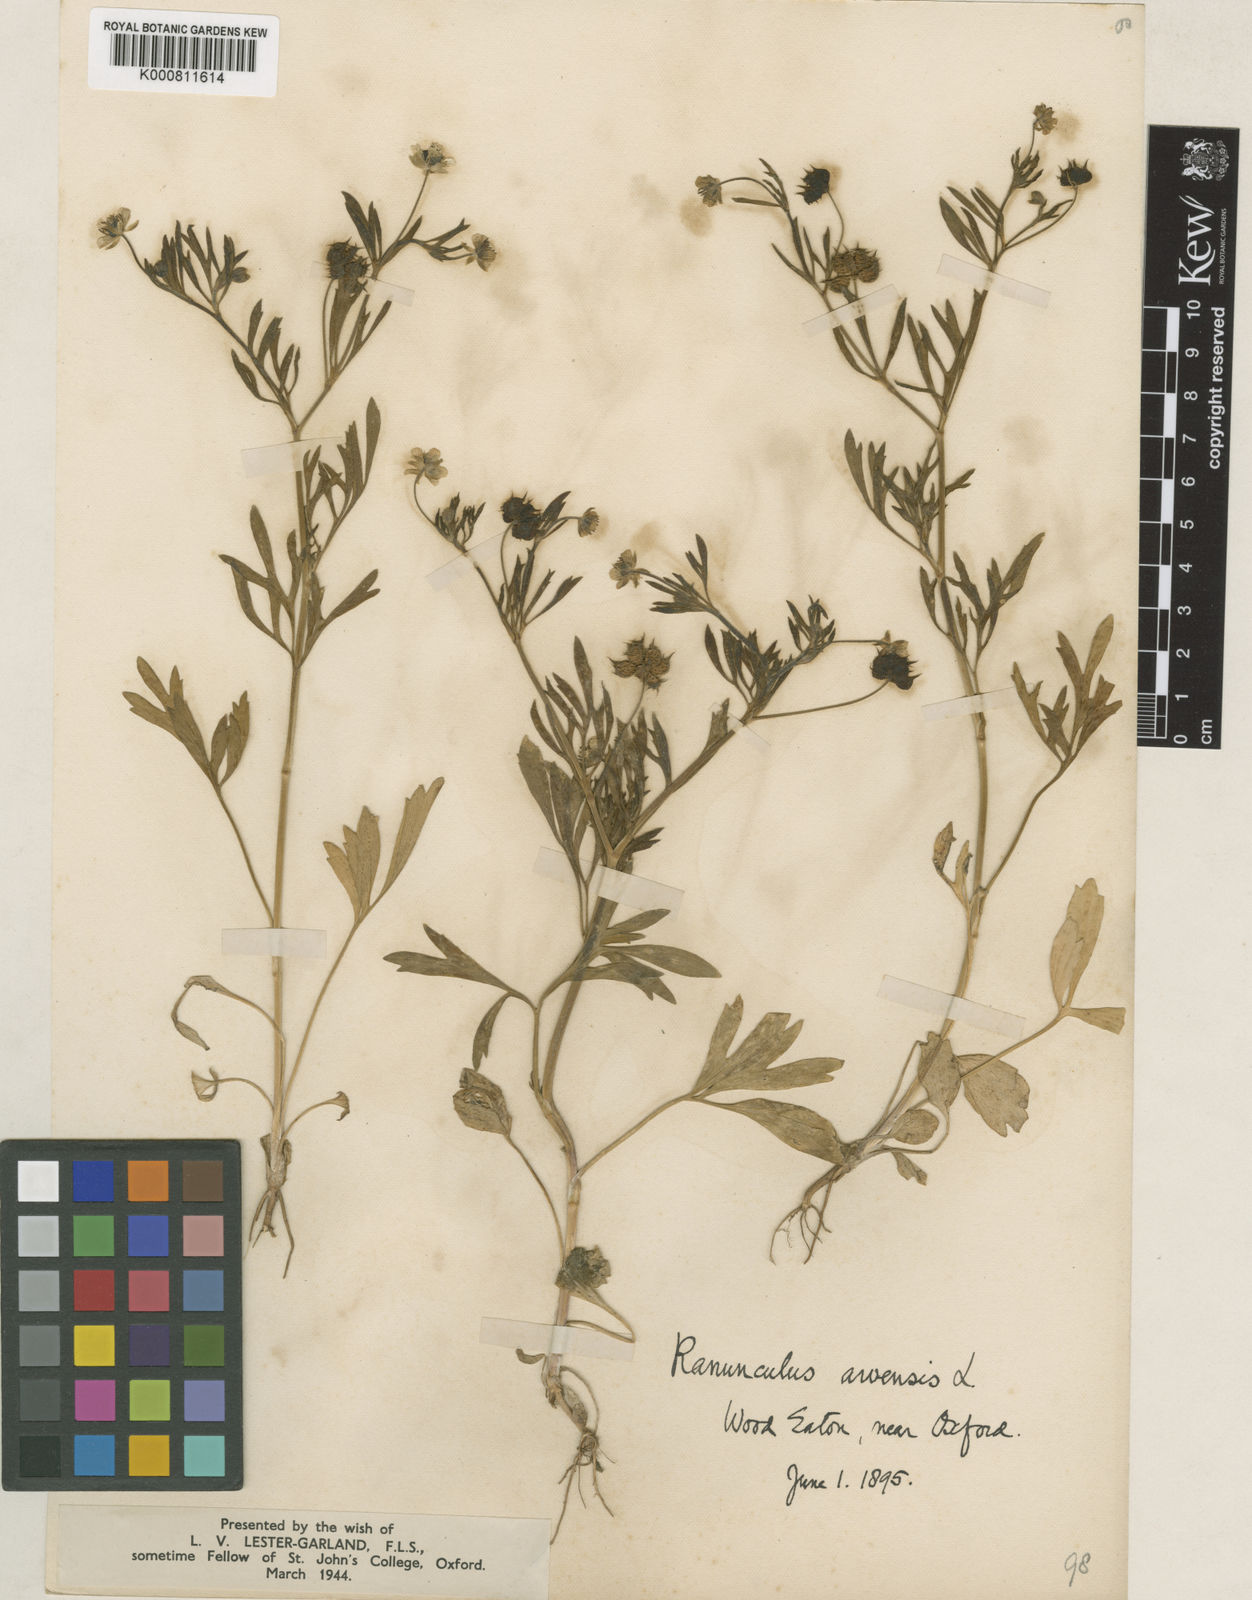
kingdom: Plantae
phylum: Tracheophyta
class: Magnoliopsida
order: Ranunculales
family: Ranunculaceae
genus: Ranunculus
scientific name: Ranunculus arvensis
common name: Corn buttercup
